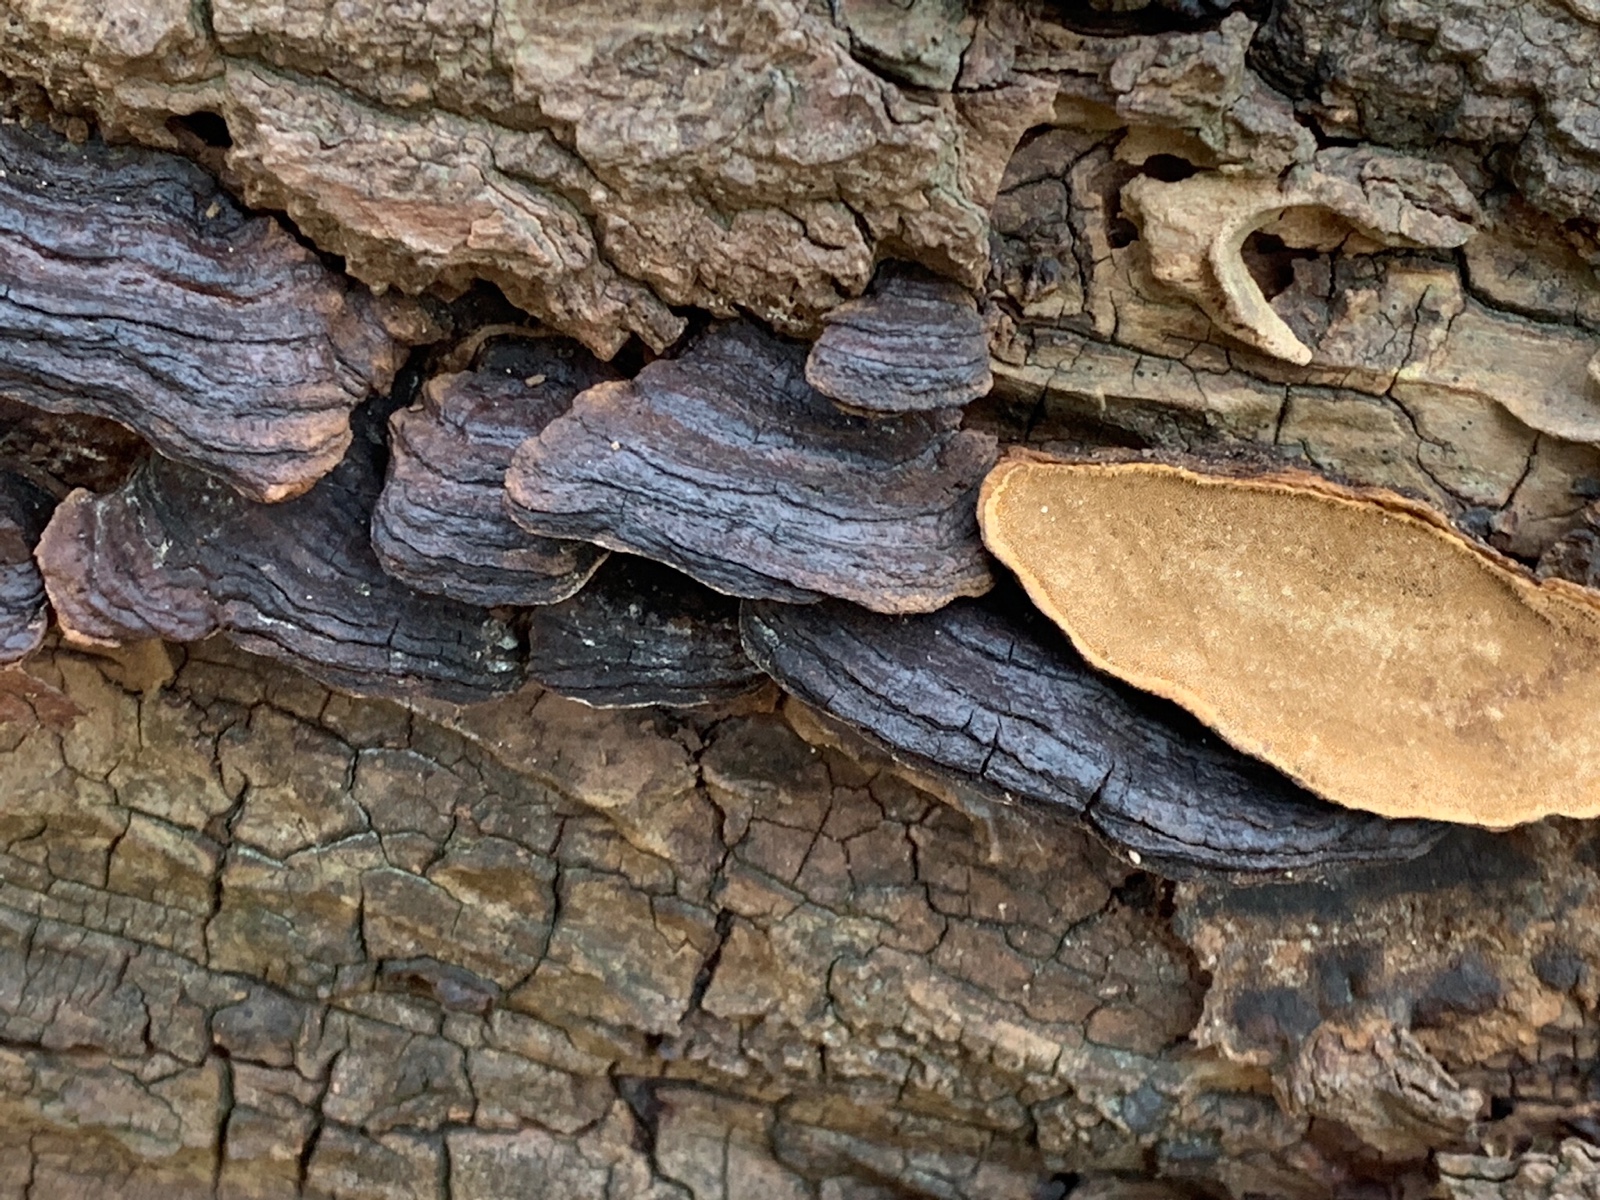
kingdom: Fungi
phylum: Basidiomycota
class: Agaricomycetes
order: Hymenochaetales
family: Hymenochaetaceae
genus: Phellinopsis
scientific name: Phellinopsis conchata
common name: pile-ildporesvamp
